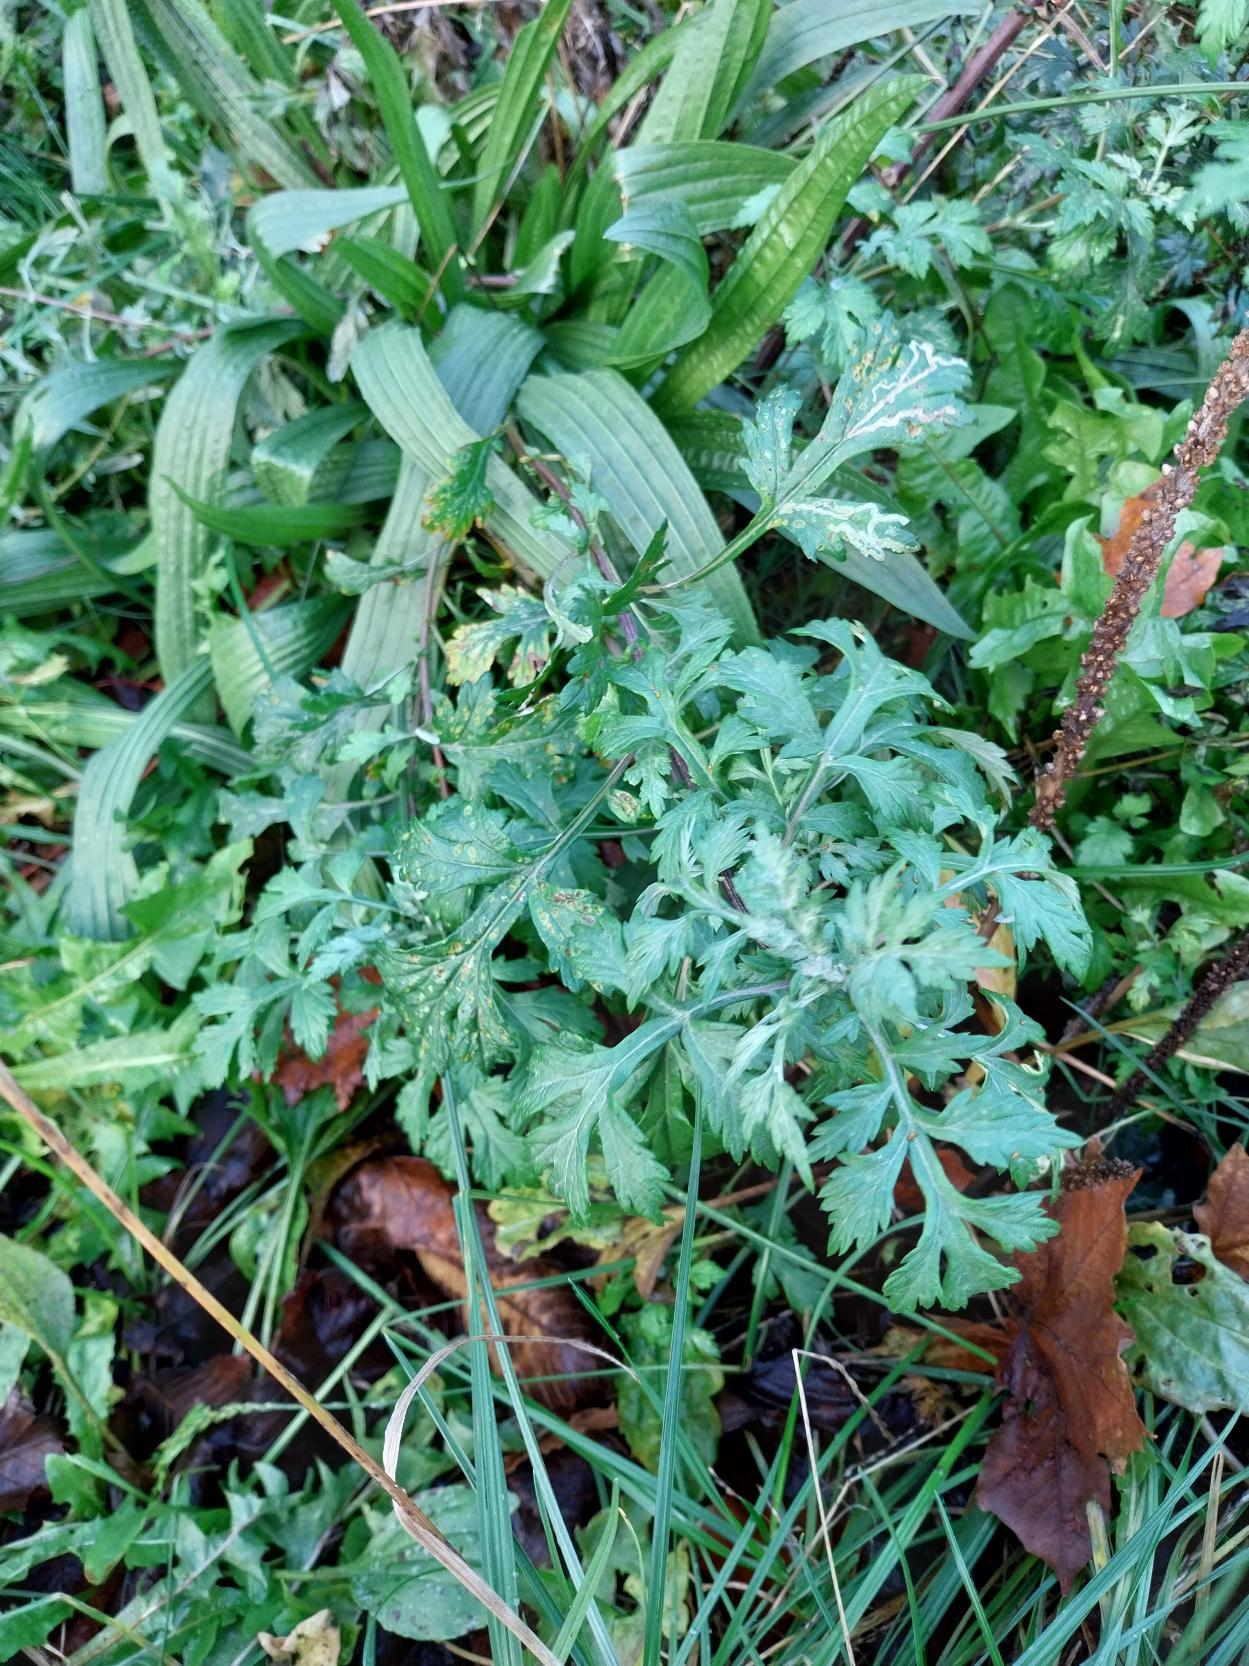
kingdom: Plantae
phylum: Tracheophyta
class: Magnoliopsida
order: Asterales
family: Asteraceae
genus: Artemisia
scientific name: Artemisia vulgaris
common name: Grå-bynke
